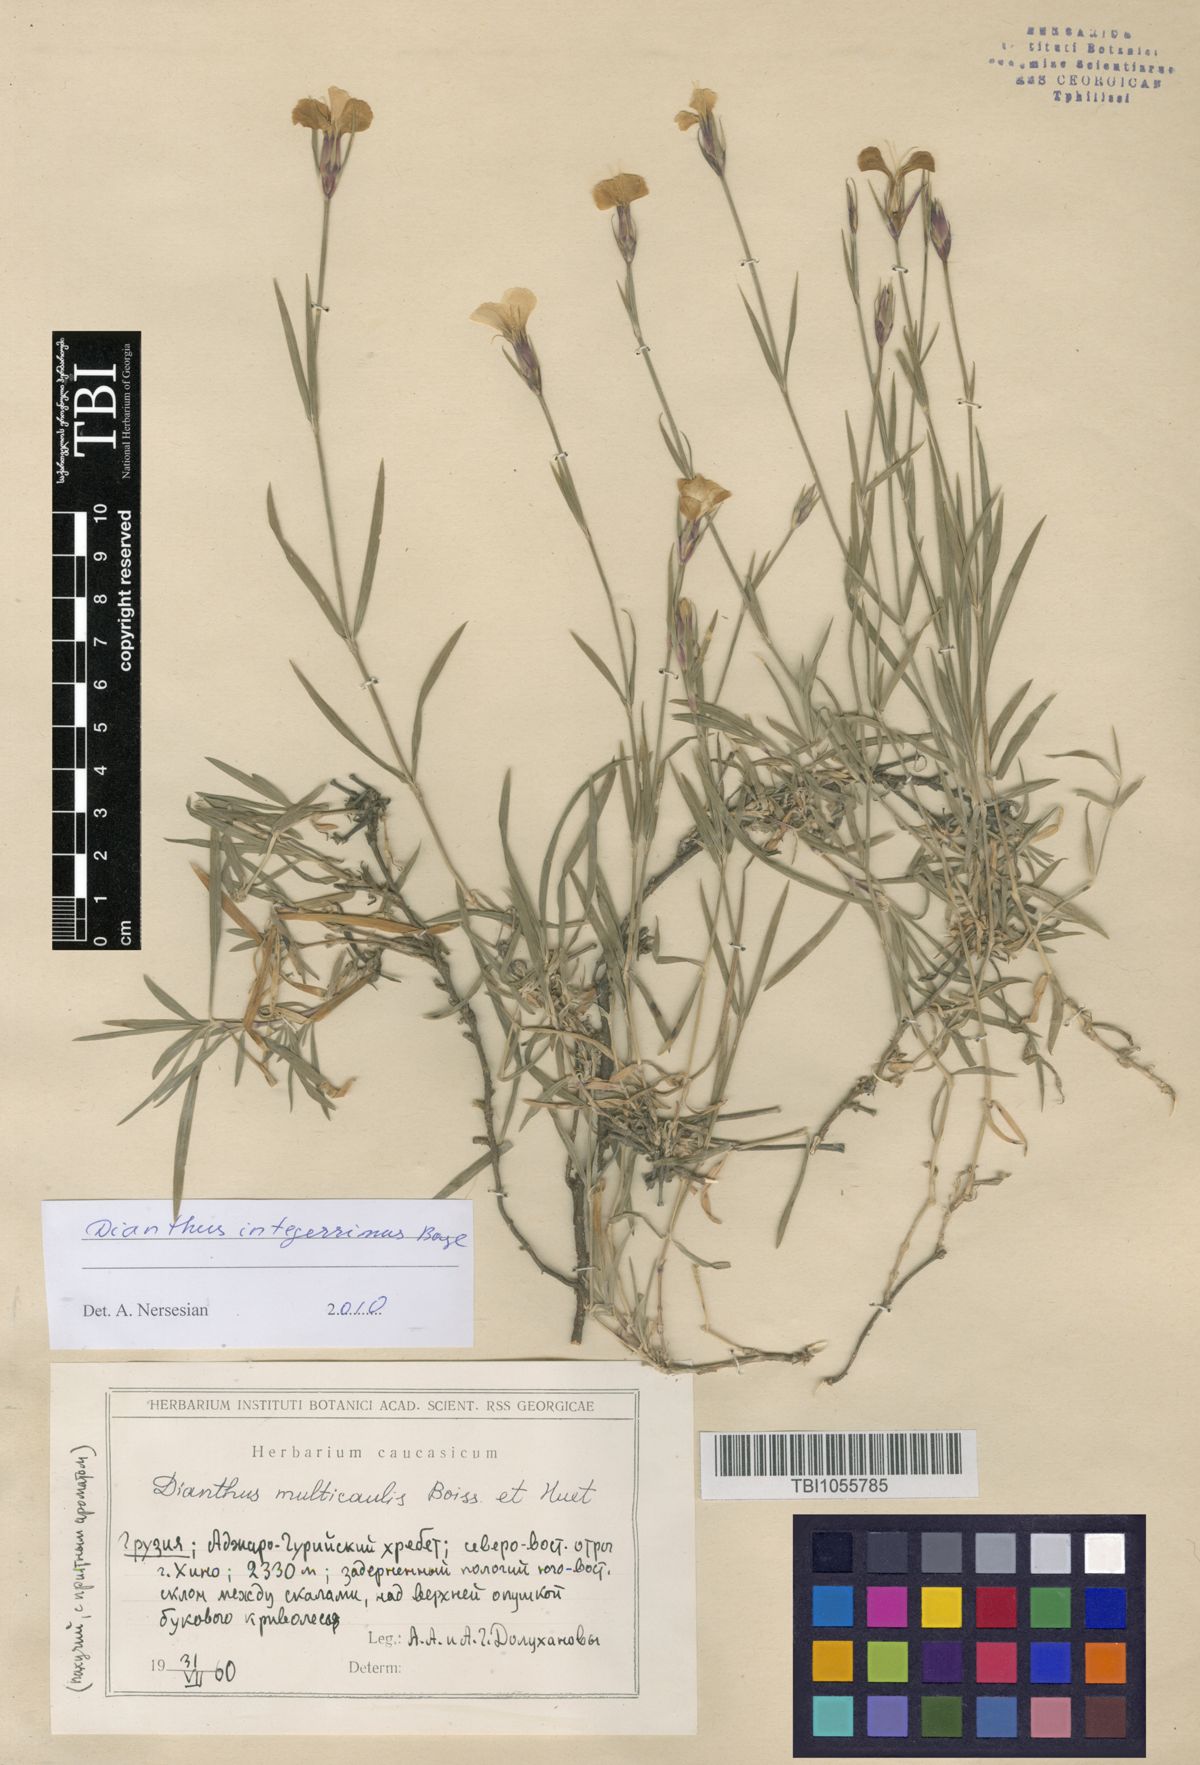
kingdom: Plantae
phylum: Tracheophyta
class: Magnoliopsida
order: Caryophyllales
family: Caryophyllaceae
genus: Dianthus
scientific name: Dianthus cretaceus
